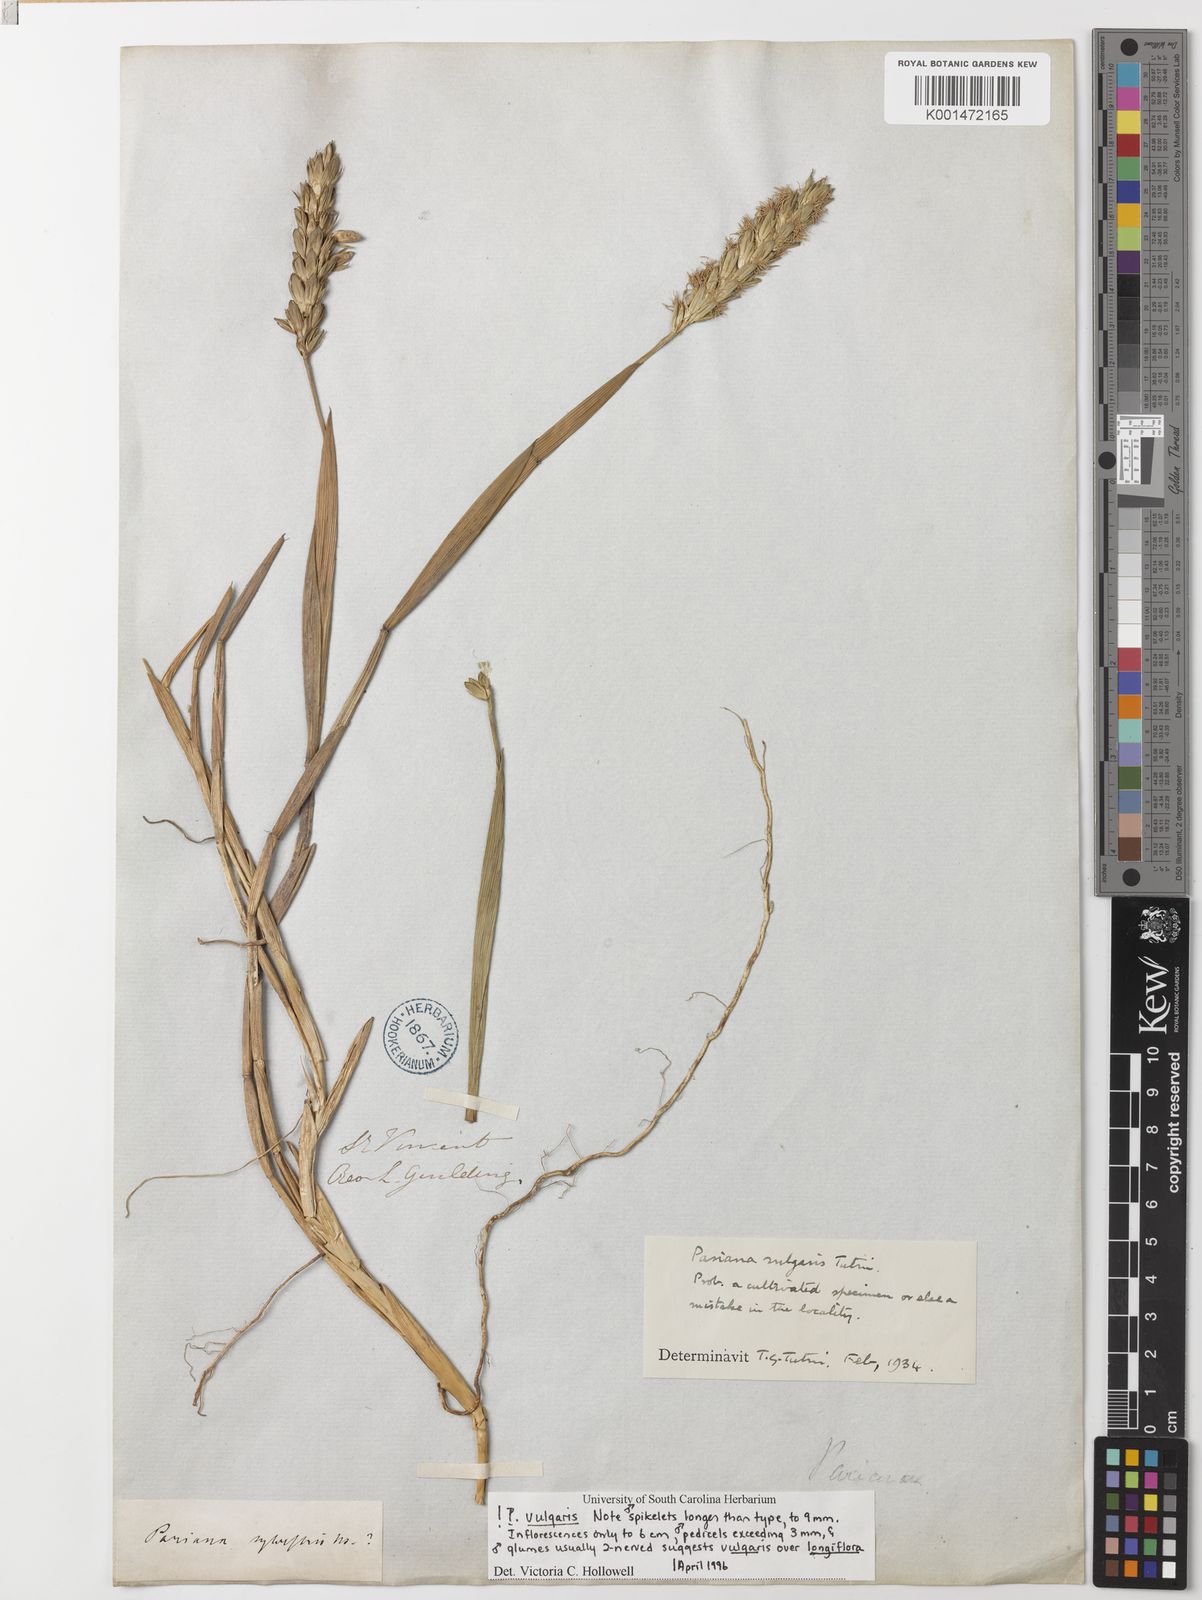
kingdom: Plantae
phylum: Tracheophyta
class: Liliopsida
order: Poales
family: Poaceae
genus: Pariana
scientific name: Pariana
